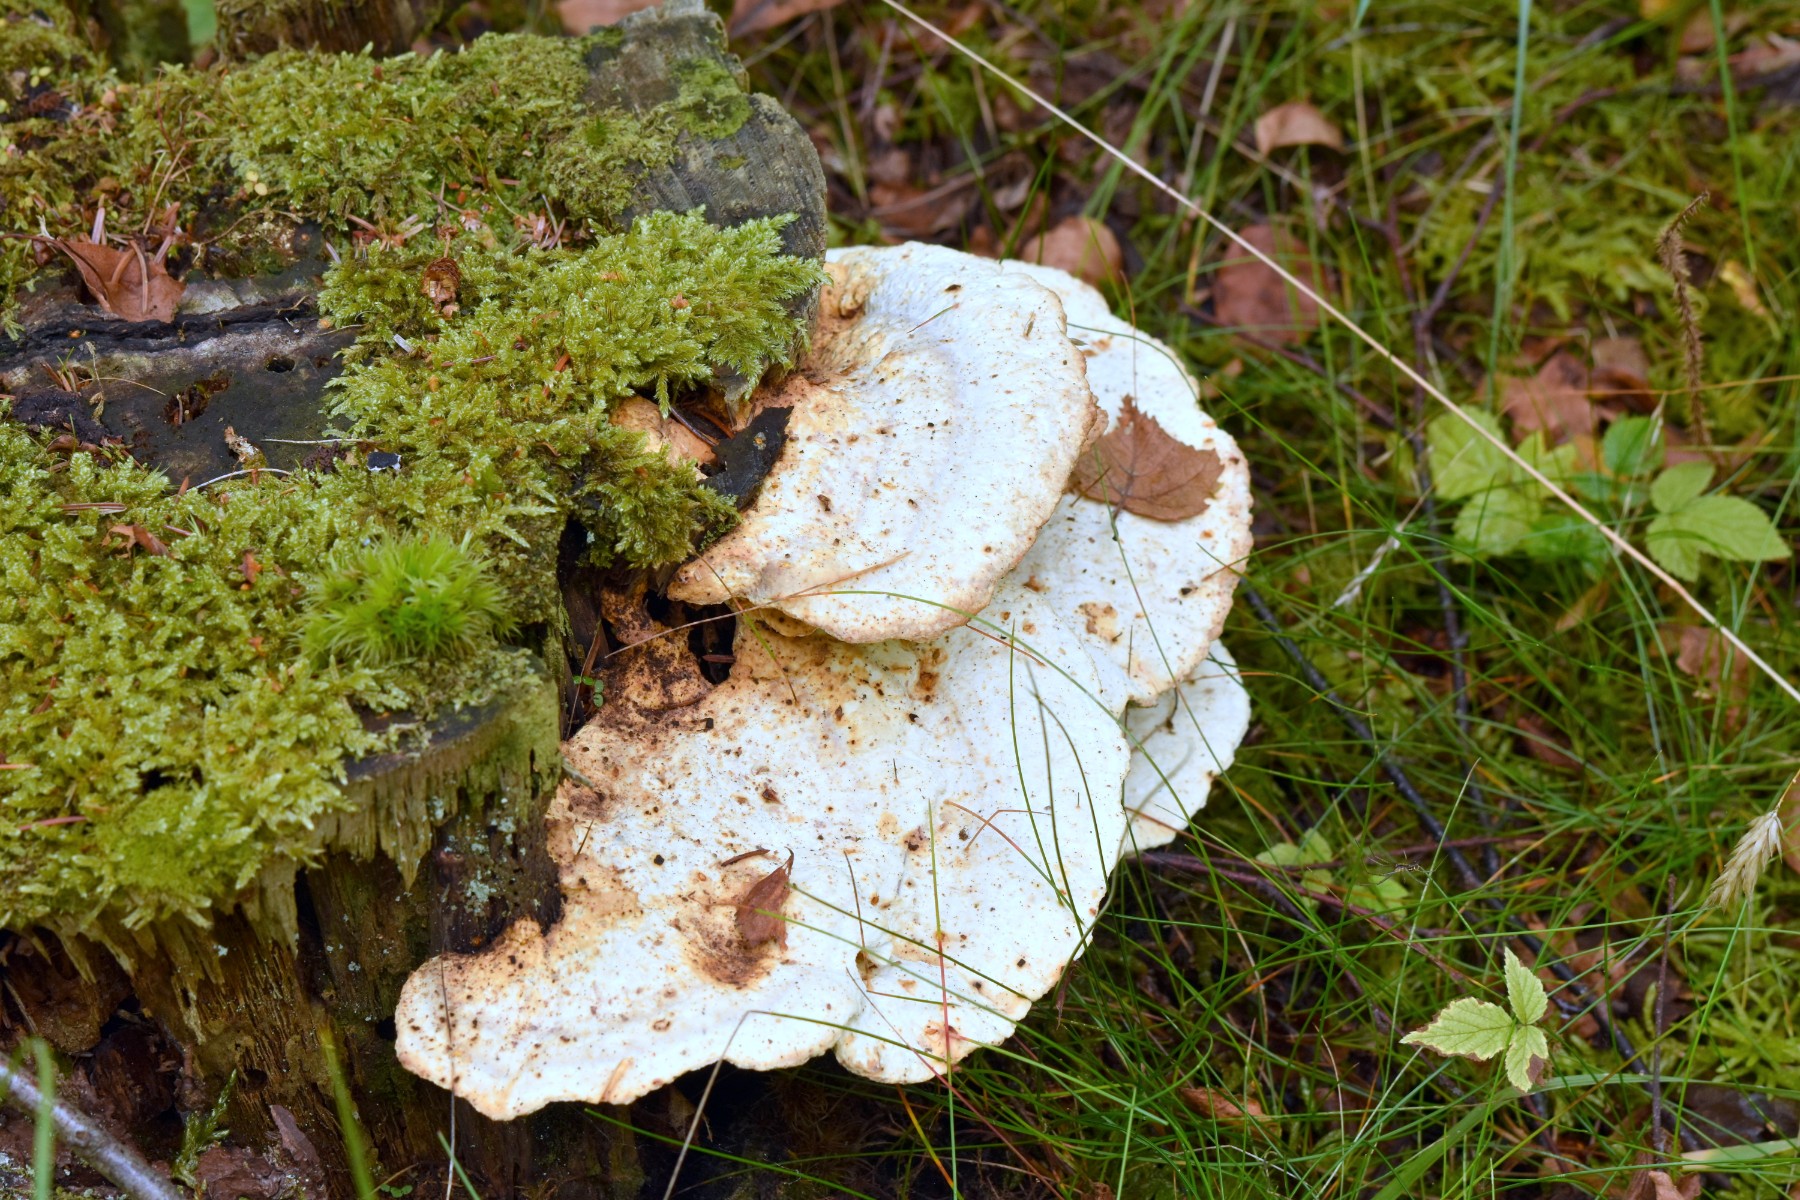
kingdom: Fungi
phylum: Basidiomycota
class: Agaricomycetes
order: Polyporales
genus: Calcipostia
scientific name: Calcipostia guttulata
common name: dråbe-kødporesvamp
